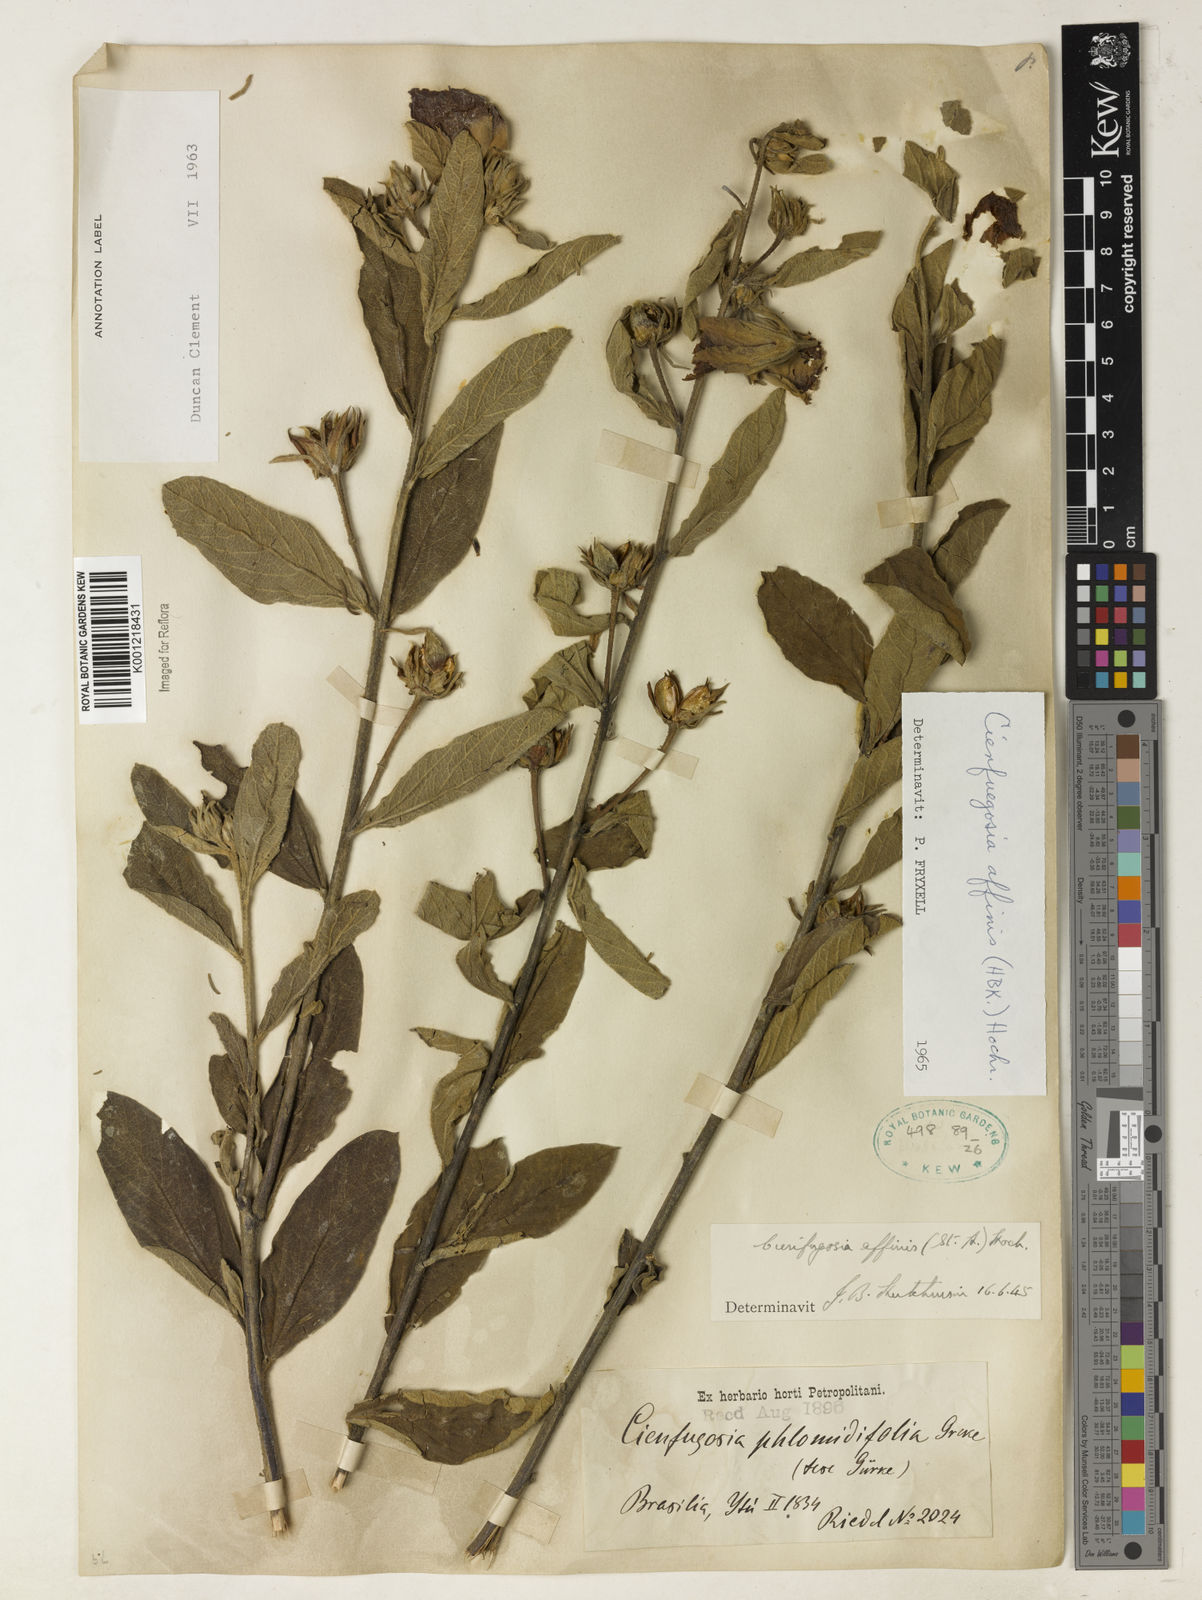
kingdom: Plantae
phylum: Tracheophyta
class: Magnoliopsida
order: Malvales
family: Malvaceae
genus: Cienfuegosia
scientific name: Cienfuegosia affinis
